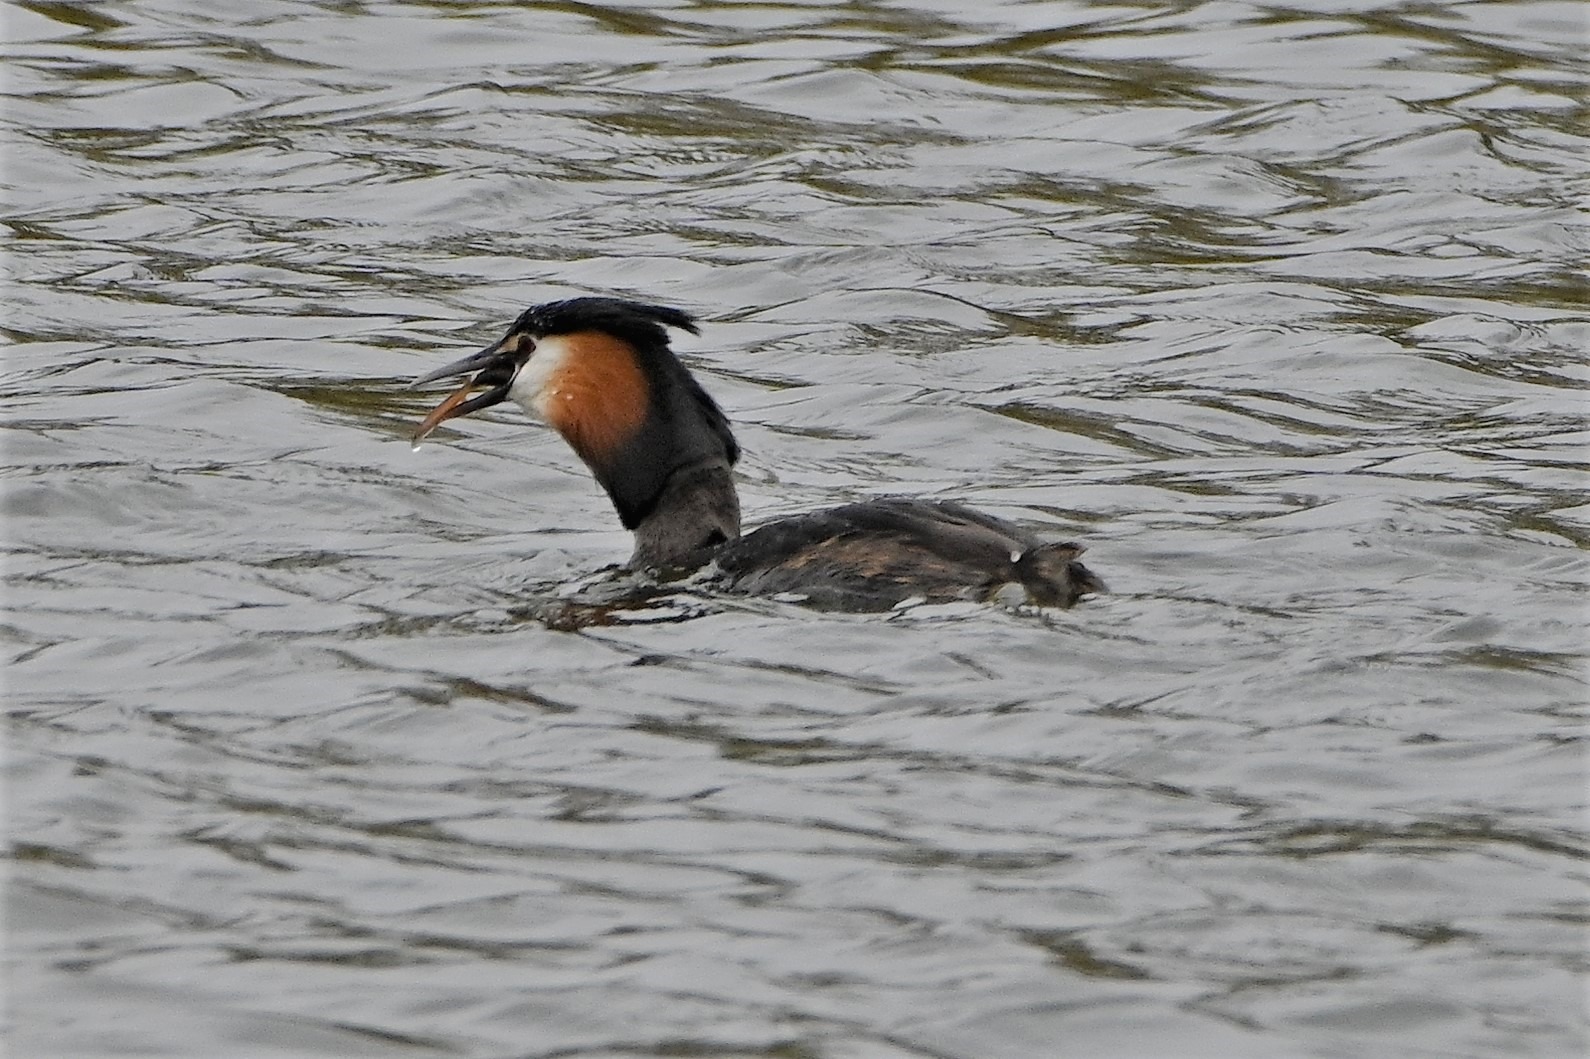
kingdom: Animalia
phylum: Chordata
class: Aves
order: Podicipediformes
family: Podicipedidae
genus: Podiceps
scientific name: Podiceps cristatus
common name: Toppet lappedykker
